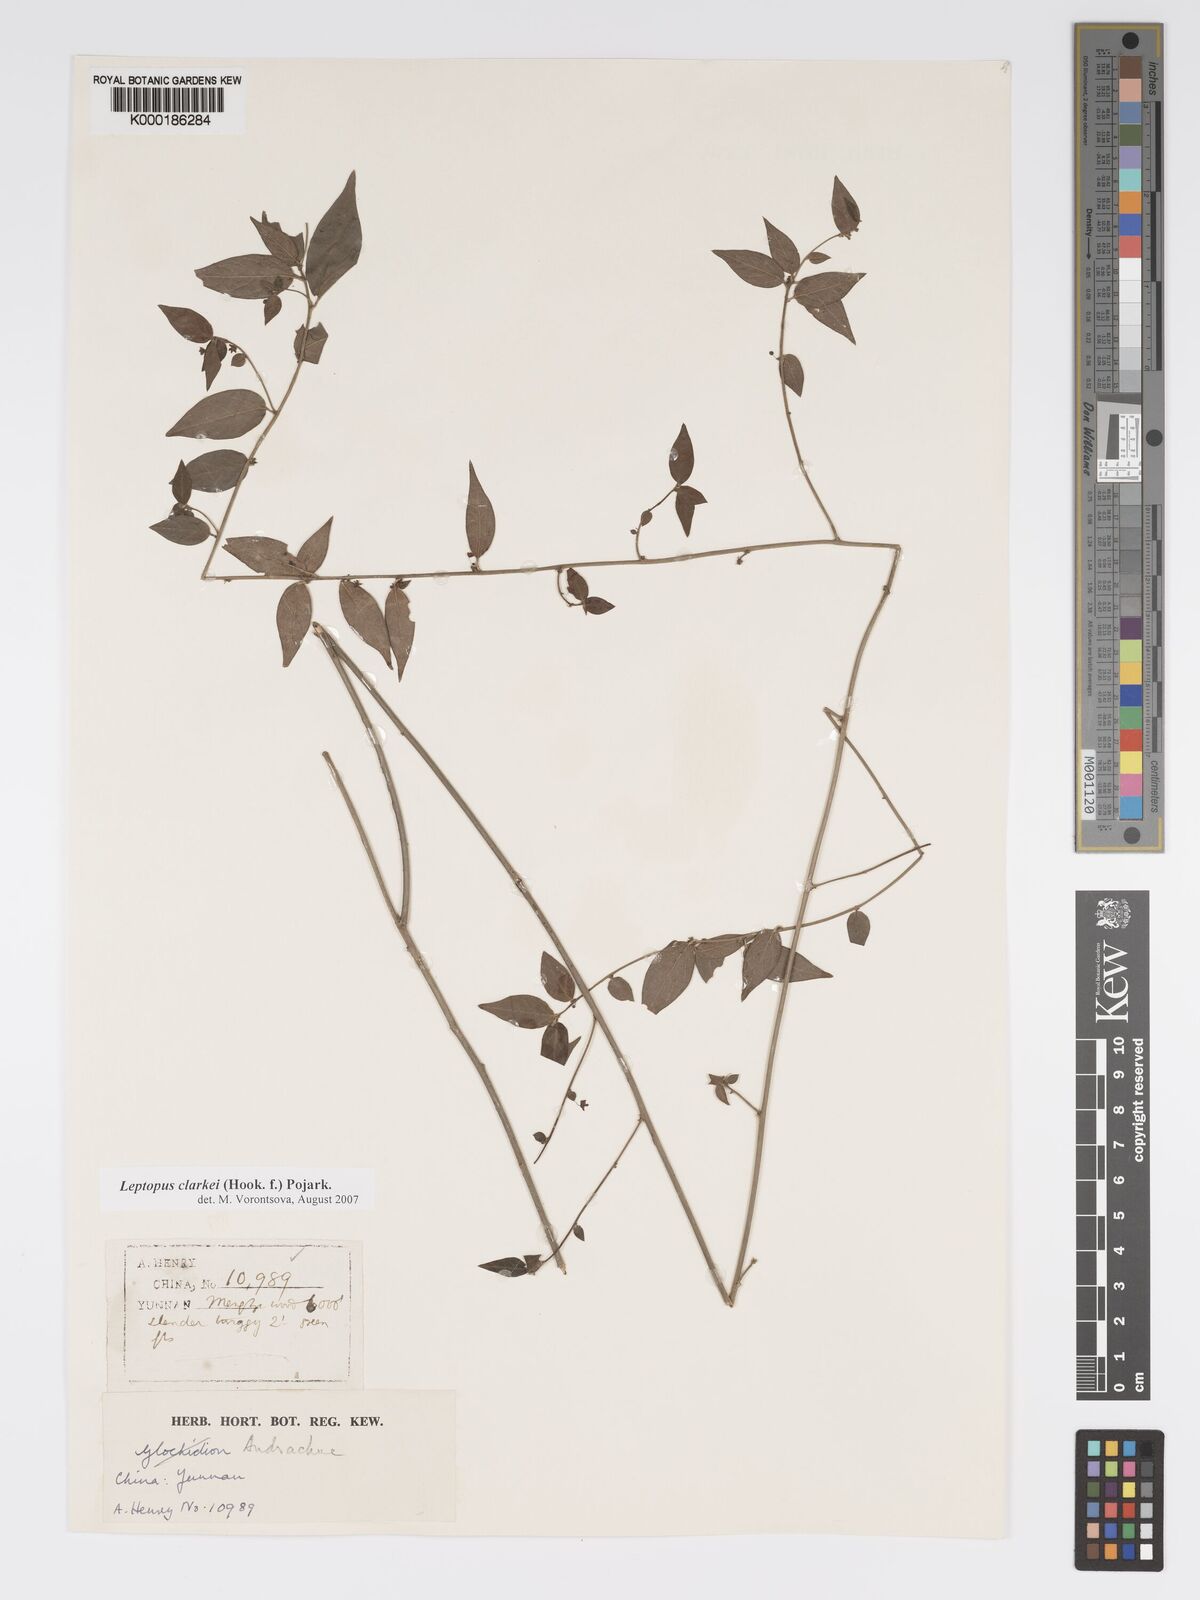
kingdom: Plantae
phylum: Tracheophyta
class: Magnoliopsida
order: Malpighiales
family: Phyllanthaceae
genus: Leptopus
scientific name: Leptopus clarkei
